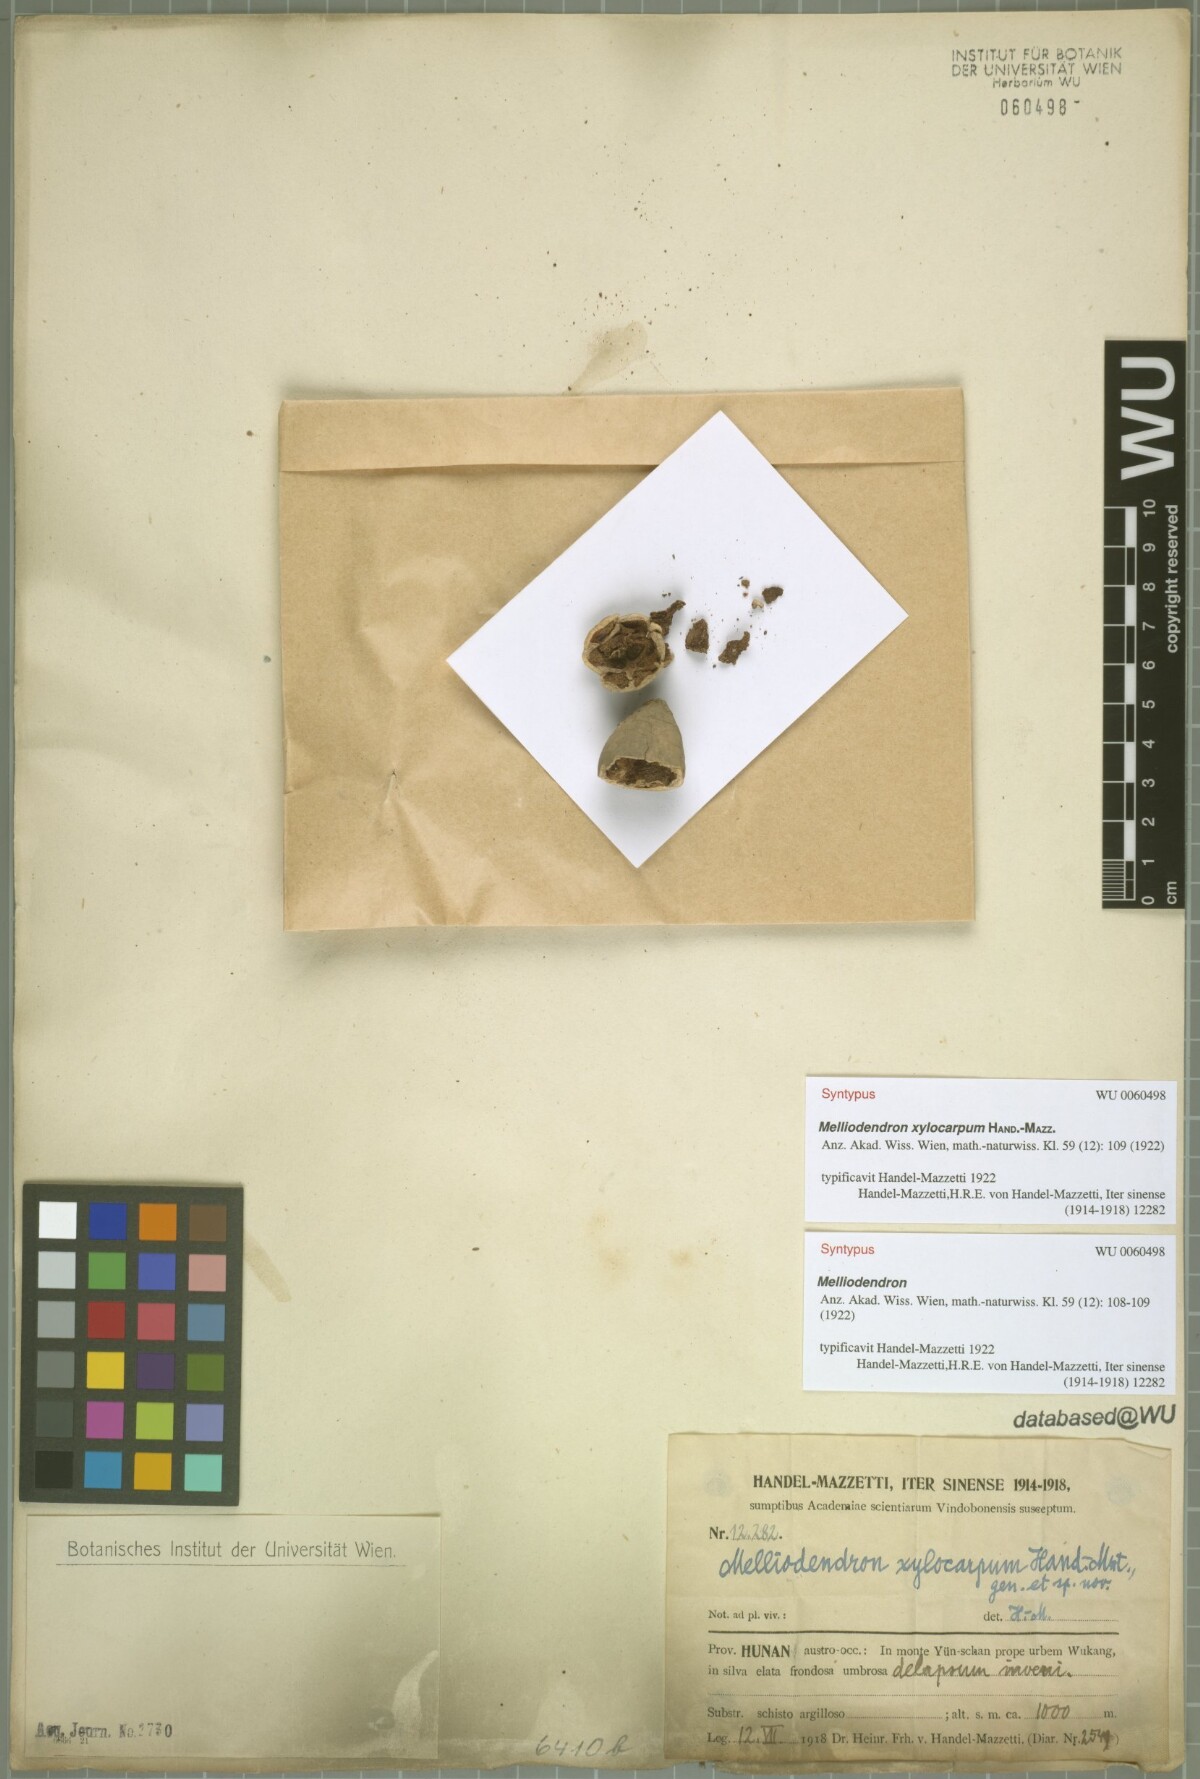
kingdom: Plantae
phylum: Tracheophyta
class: Magnoliopsida
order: Ericales
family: Styracaceae
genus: Melliodendron
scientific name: Melliodendron xylocarpum
